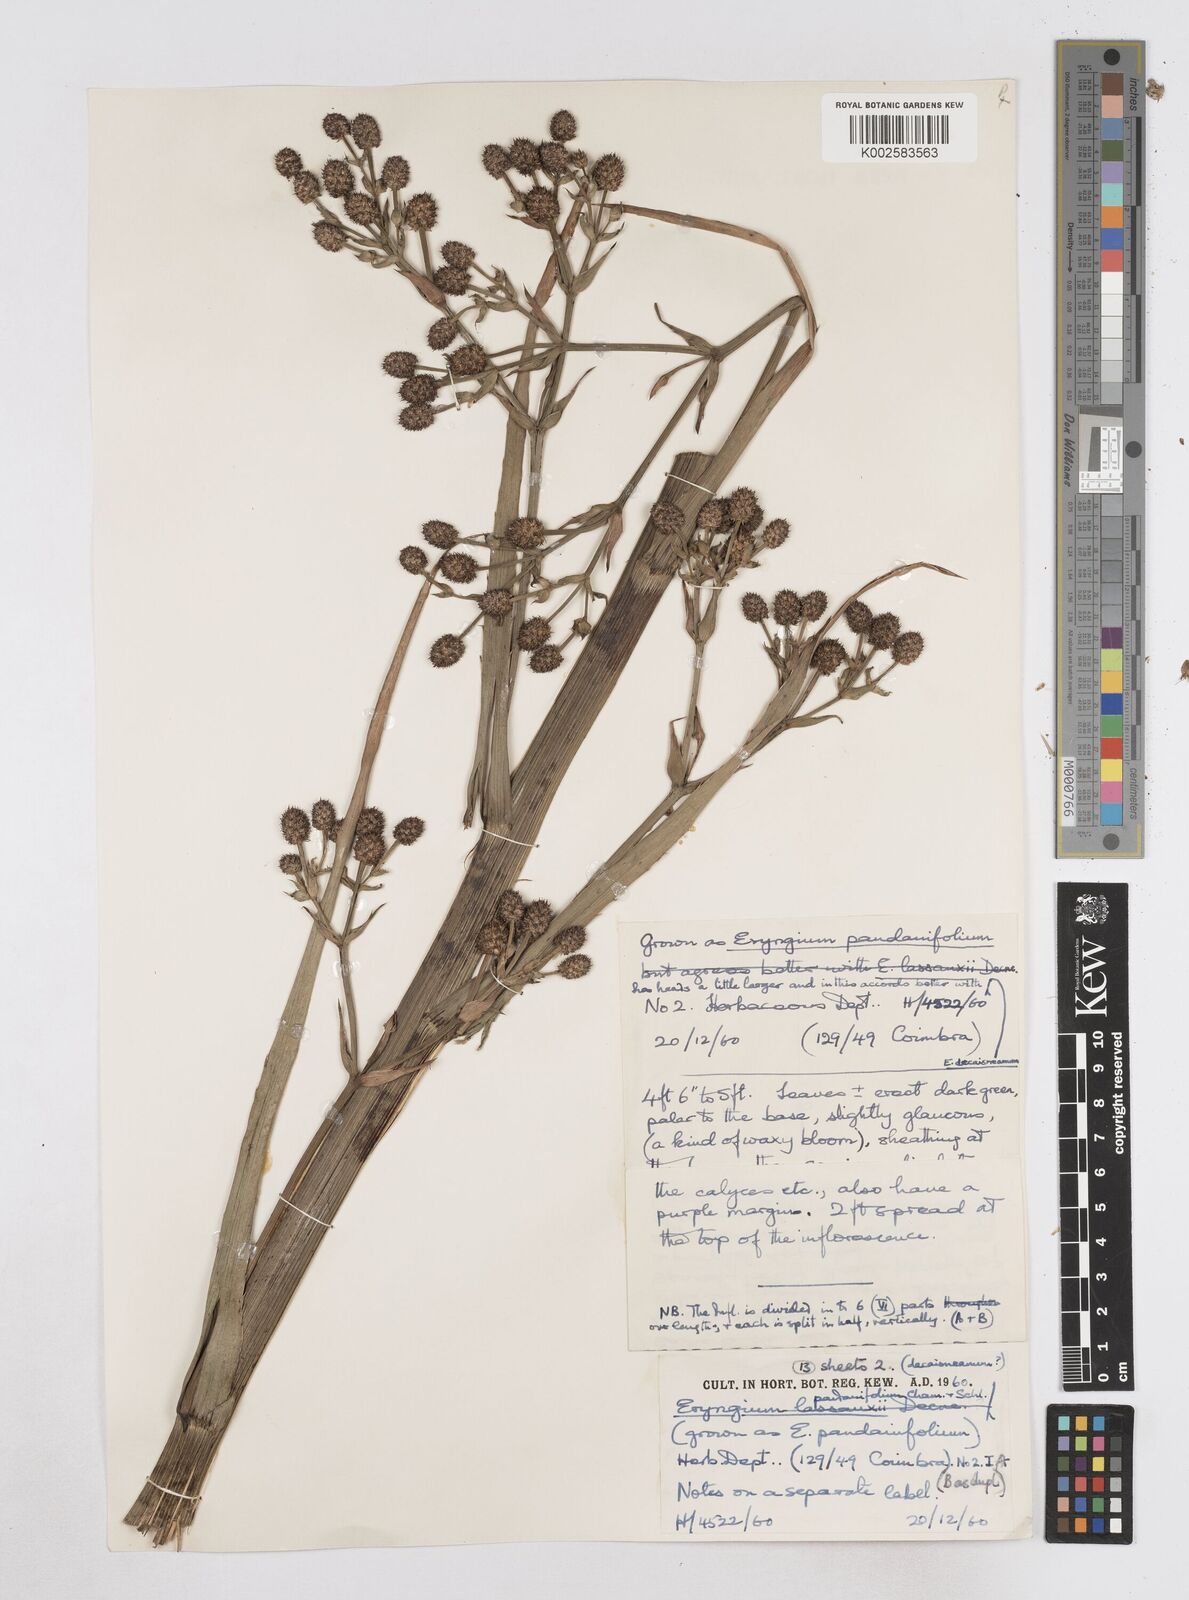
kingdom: Plantae
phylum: Tracheophyta
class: Magnoliopsida
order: Apiales
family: Apiaceae
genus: Eryngium
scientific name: Eryngium pandanifolium
